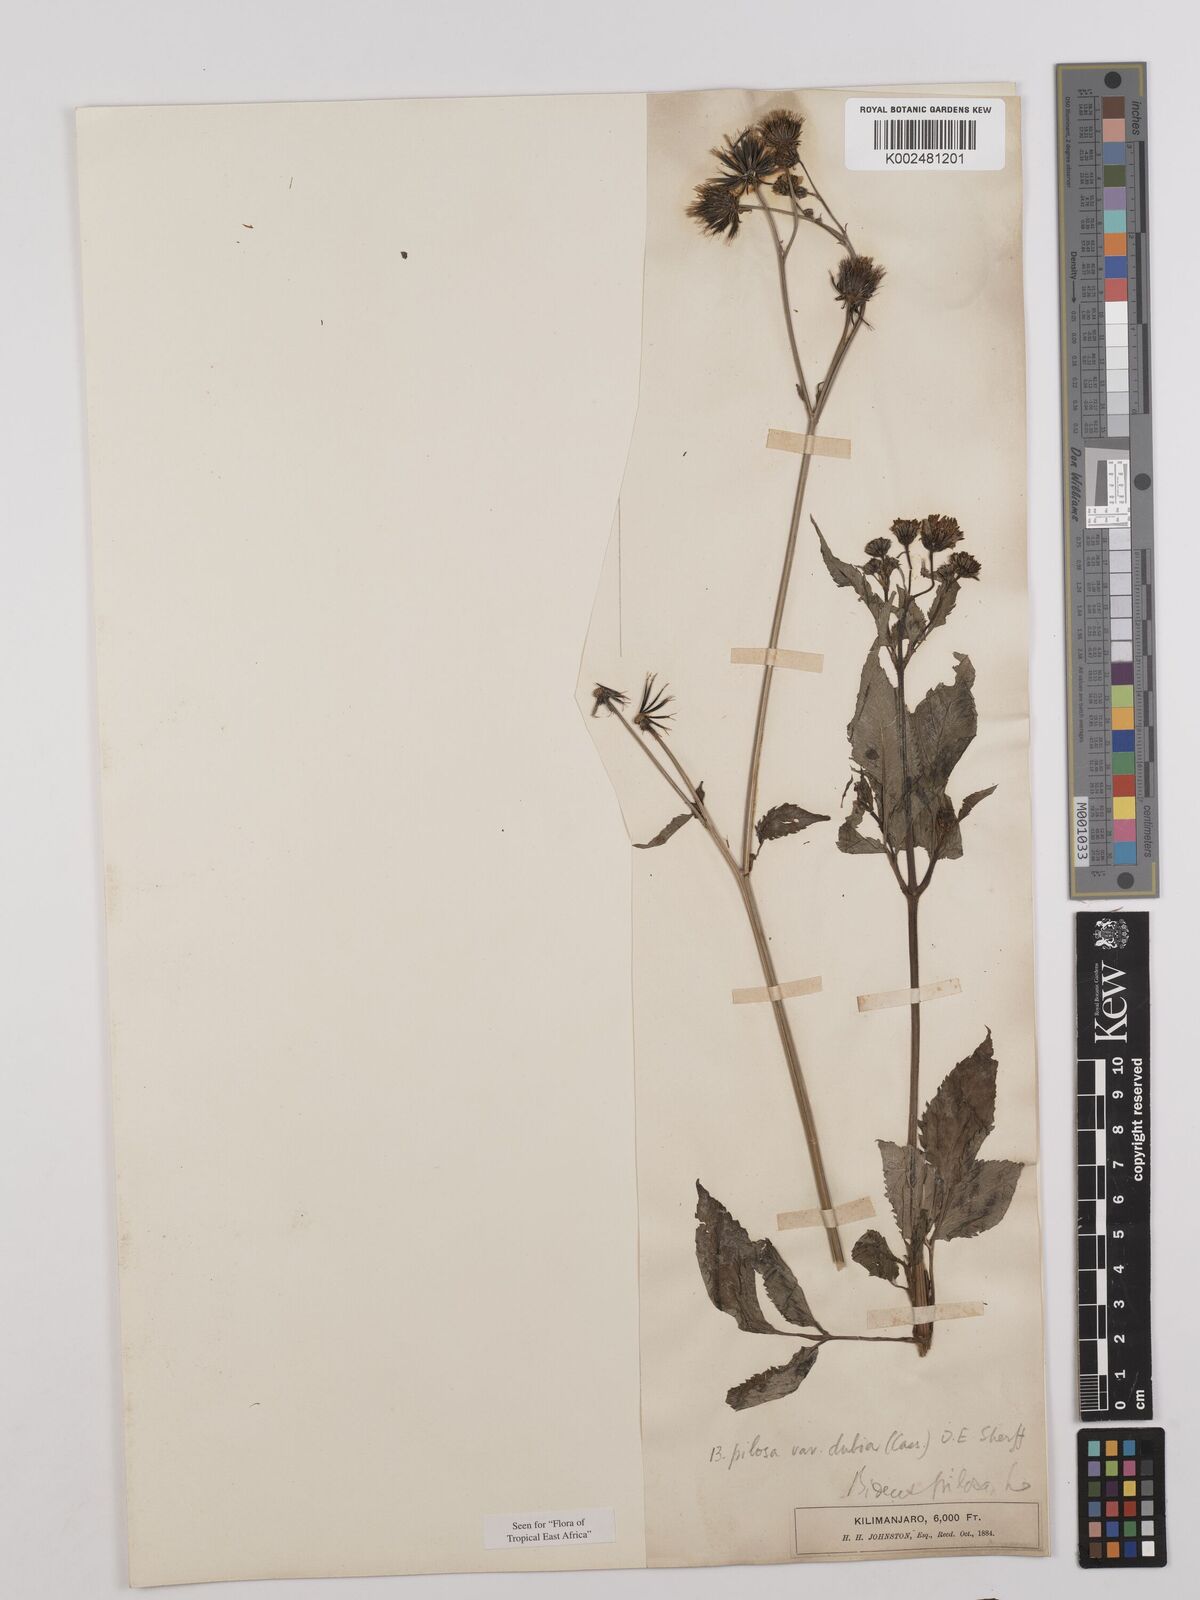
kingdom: Plantae
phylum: Tracheophyta
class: Magnoliopsida
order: Asterales
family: Asteraceae
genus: Bidens
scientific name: Bidens pilosa
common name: Black-jack
